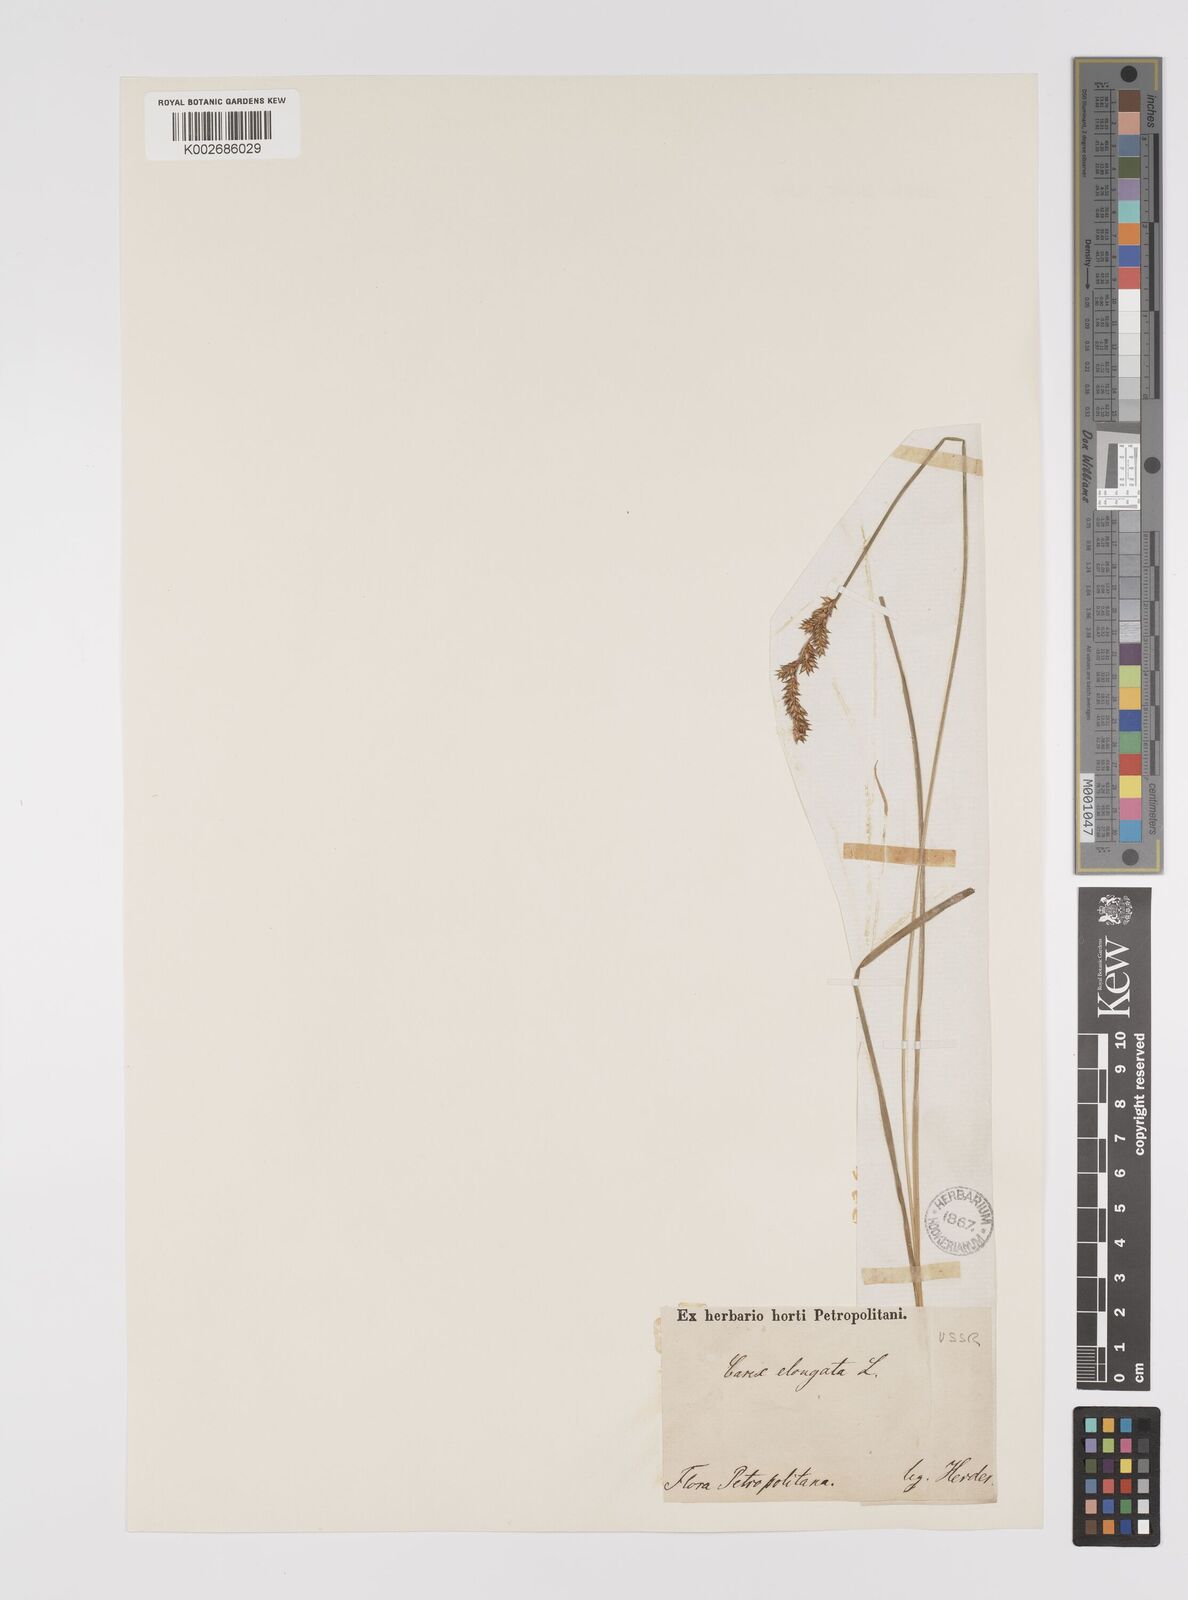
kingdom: Plantae
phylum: Tracheophyta
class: Liliopsida
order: Poales
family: Cyperaceae
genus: Carex
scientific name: Carex elongata
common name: Elongated sedge
